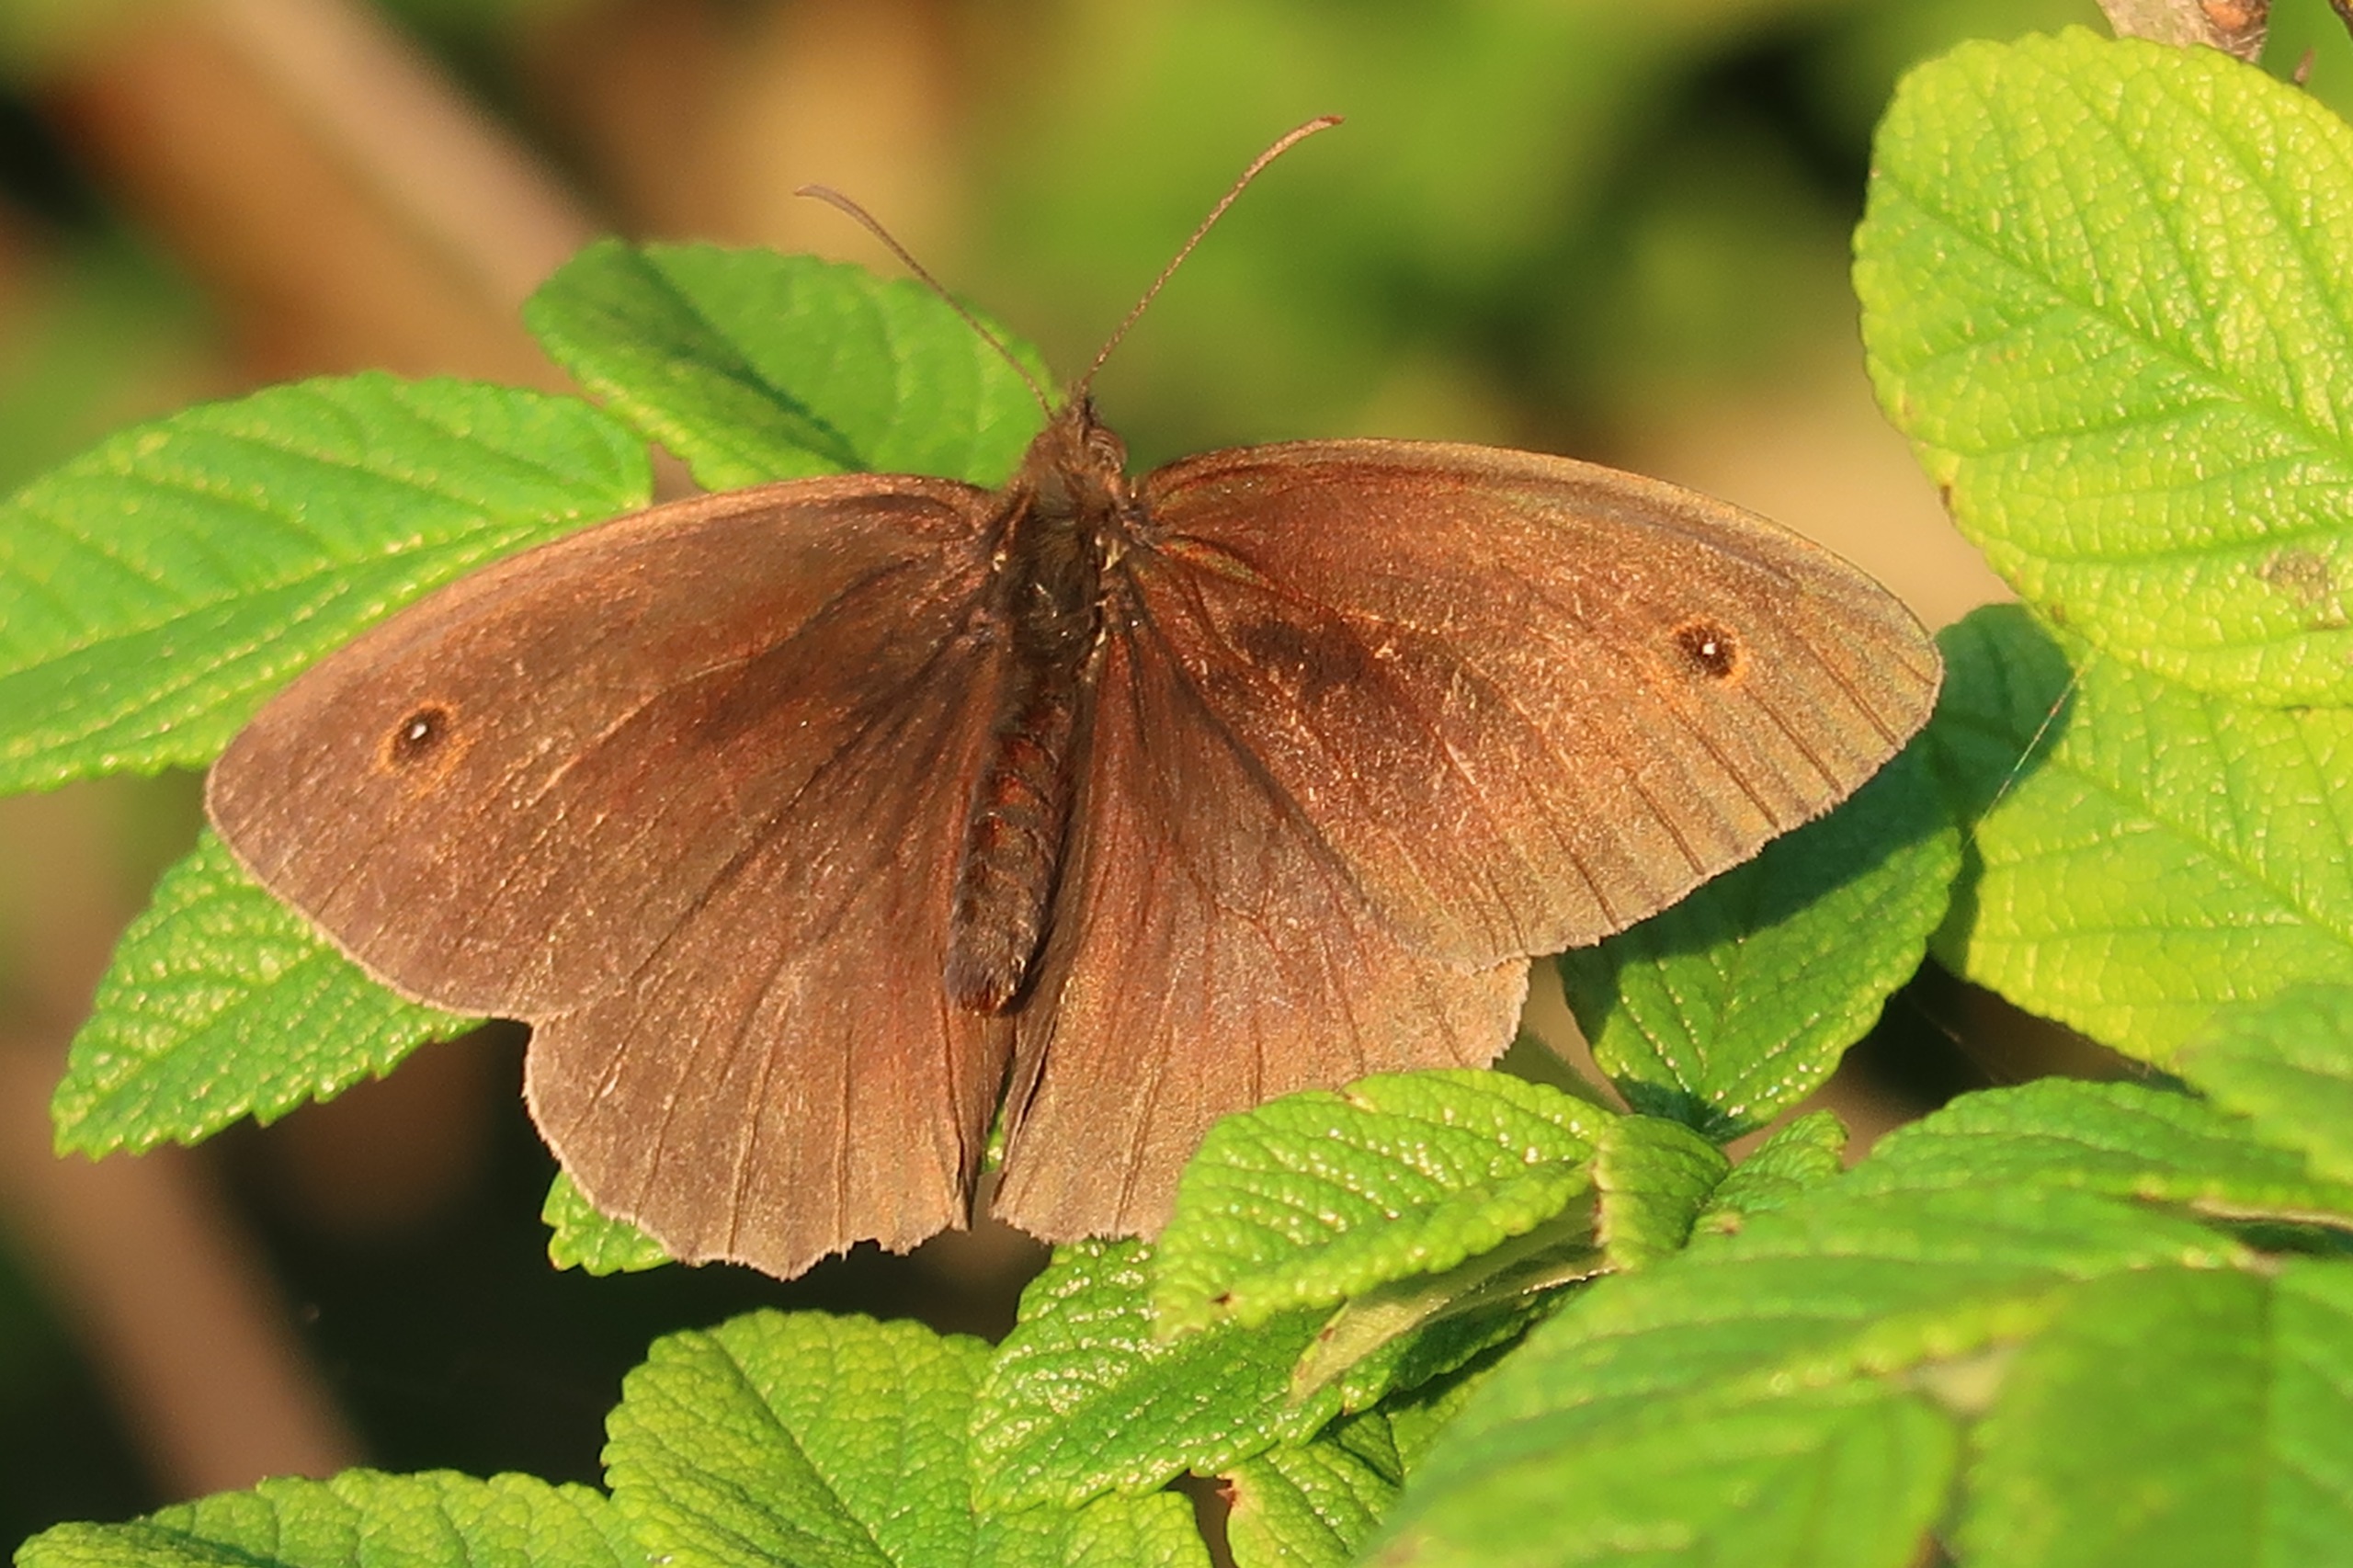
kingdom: Animalia
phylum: Arthropoda
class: Insecta
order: Lepidoptera
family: Nymphalidae
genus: Maniola
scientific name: Maniola jurtina
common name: Græsrandøje
